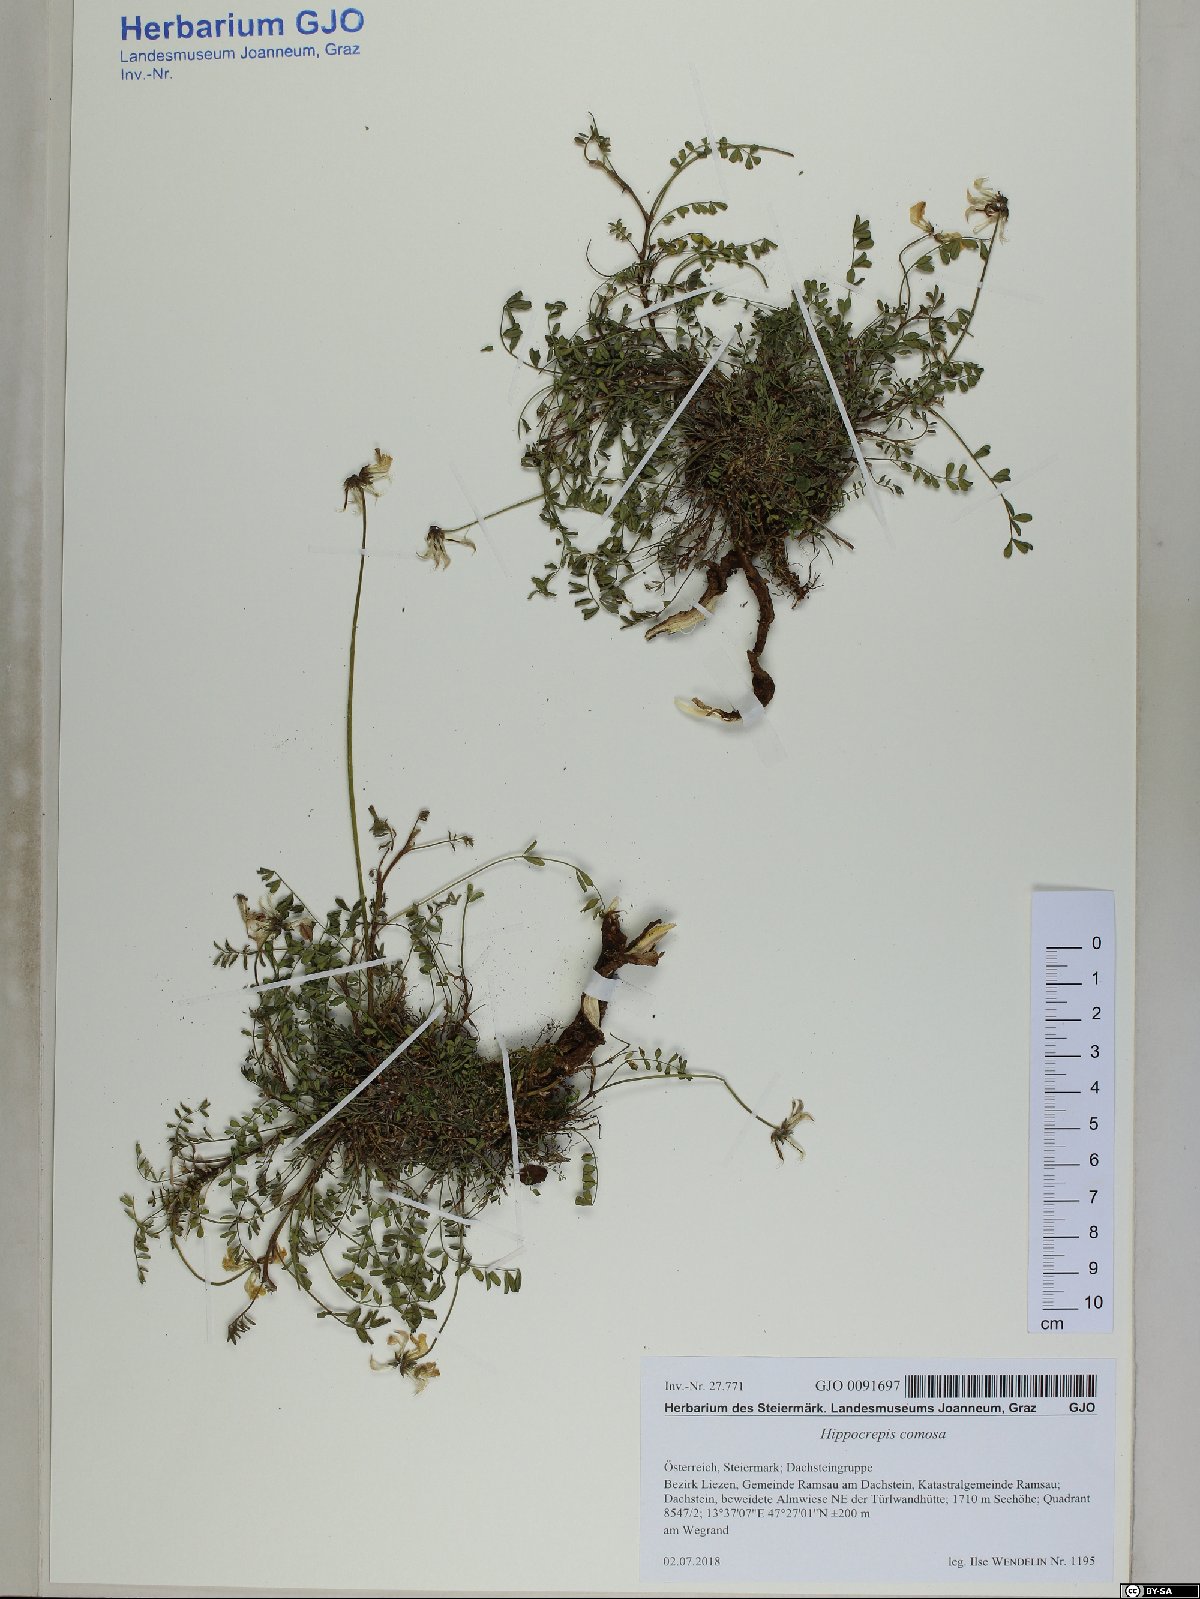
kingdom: Plantae
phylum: Tracheophyta
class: Magnoliopsida
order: Fabales
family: Fabaceae
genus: Hippocrepis
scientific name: Hippocrepis comosa
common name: Horseshoe vetch
